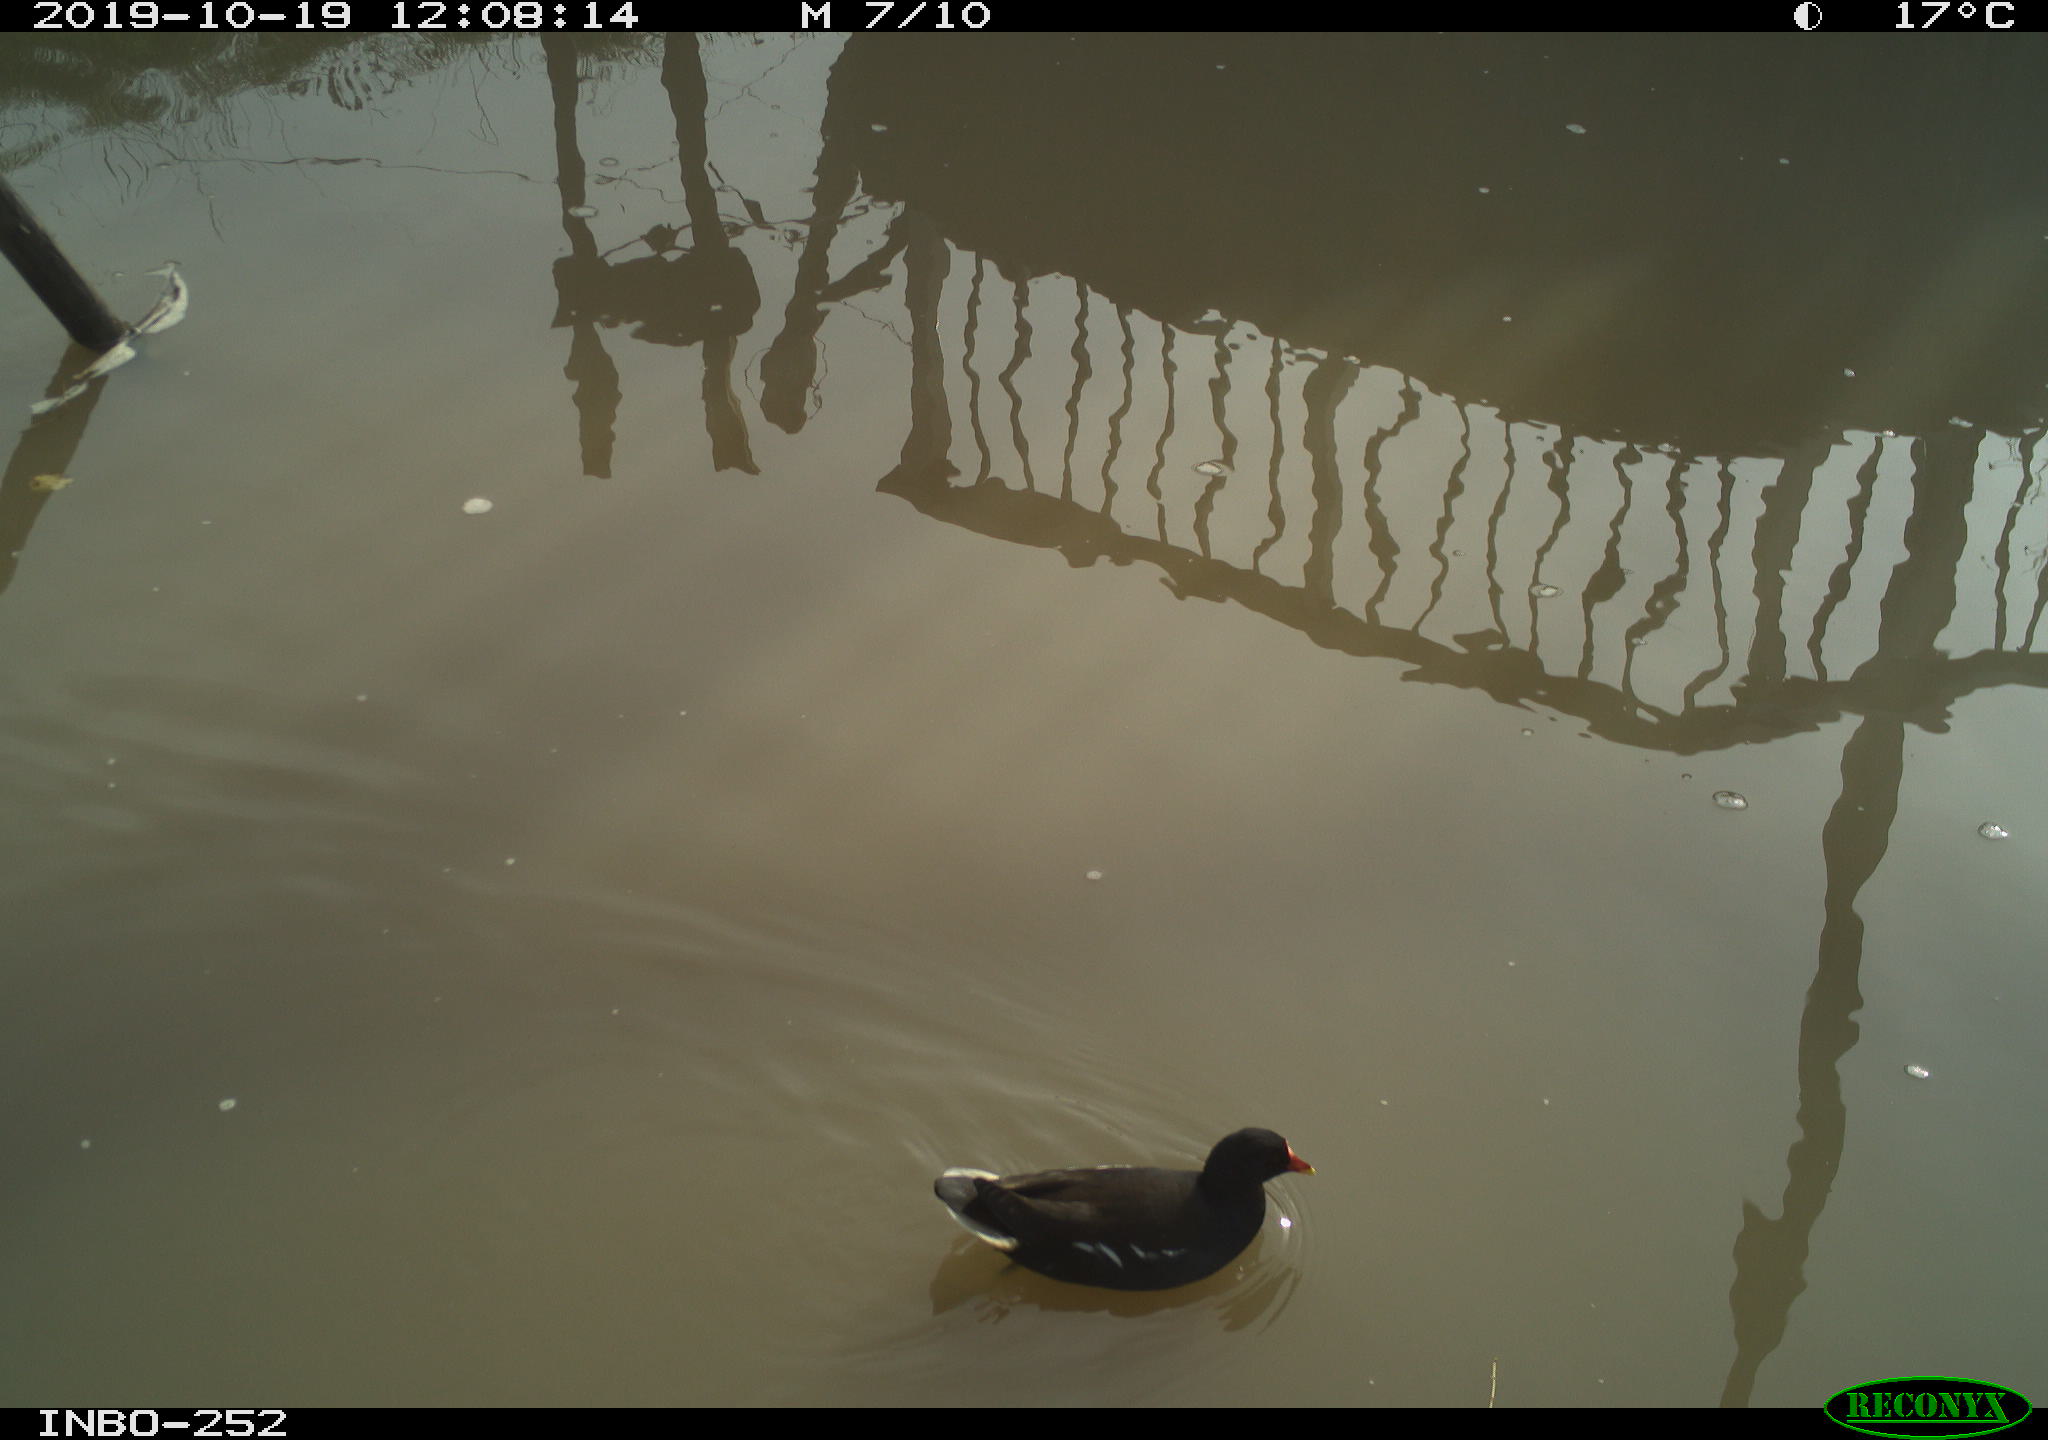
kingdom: Animalia
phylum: Chordata
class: Aves
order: Gruiformes
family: Rallidae
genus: Gallinula
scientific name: Gallinula chloropus
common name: Common moorhen
